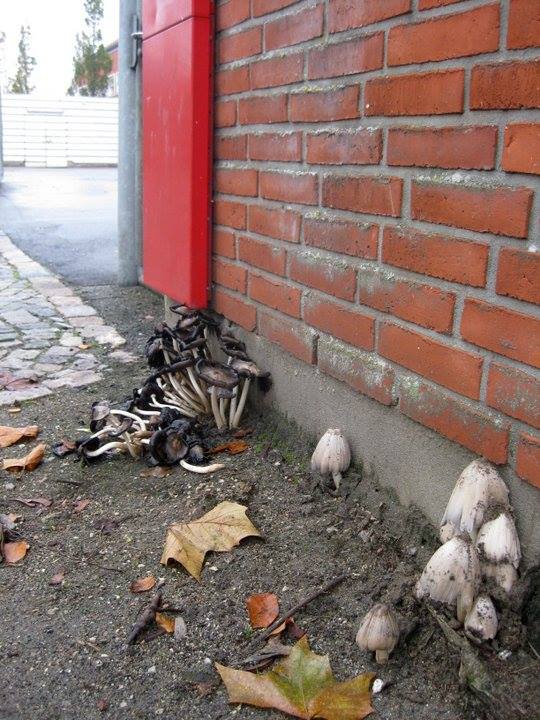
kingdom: Fungi
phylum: Basidiomycota
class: Agaricomycetes
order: Agaricales
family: Psathyrellaceae
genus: Coprinopsis
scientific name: Coprinopsis atramentaria
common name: almindelig blækhat
